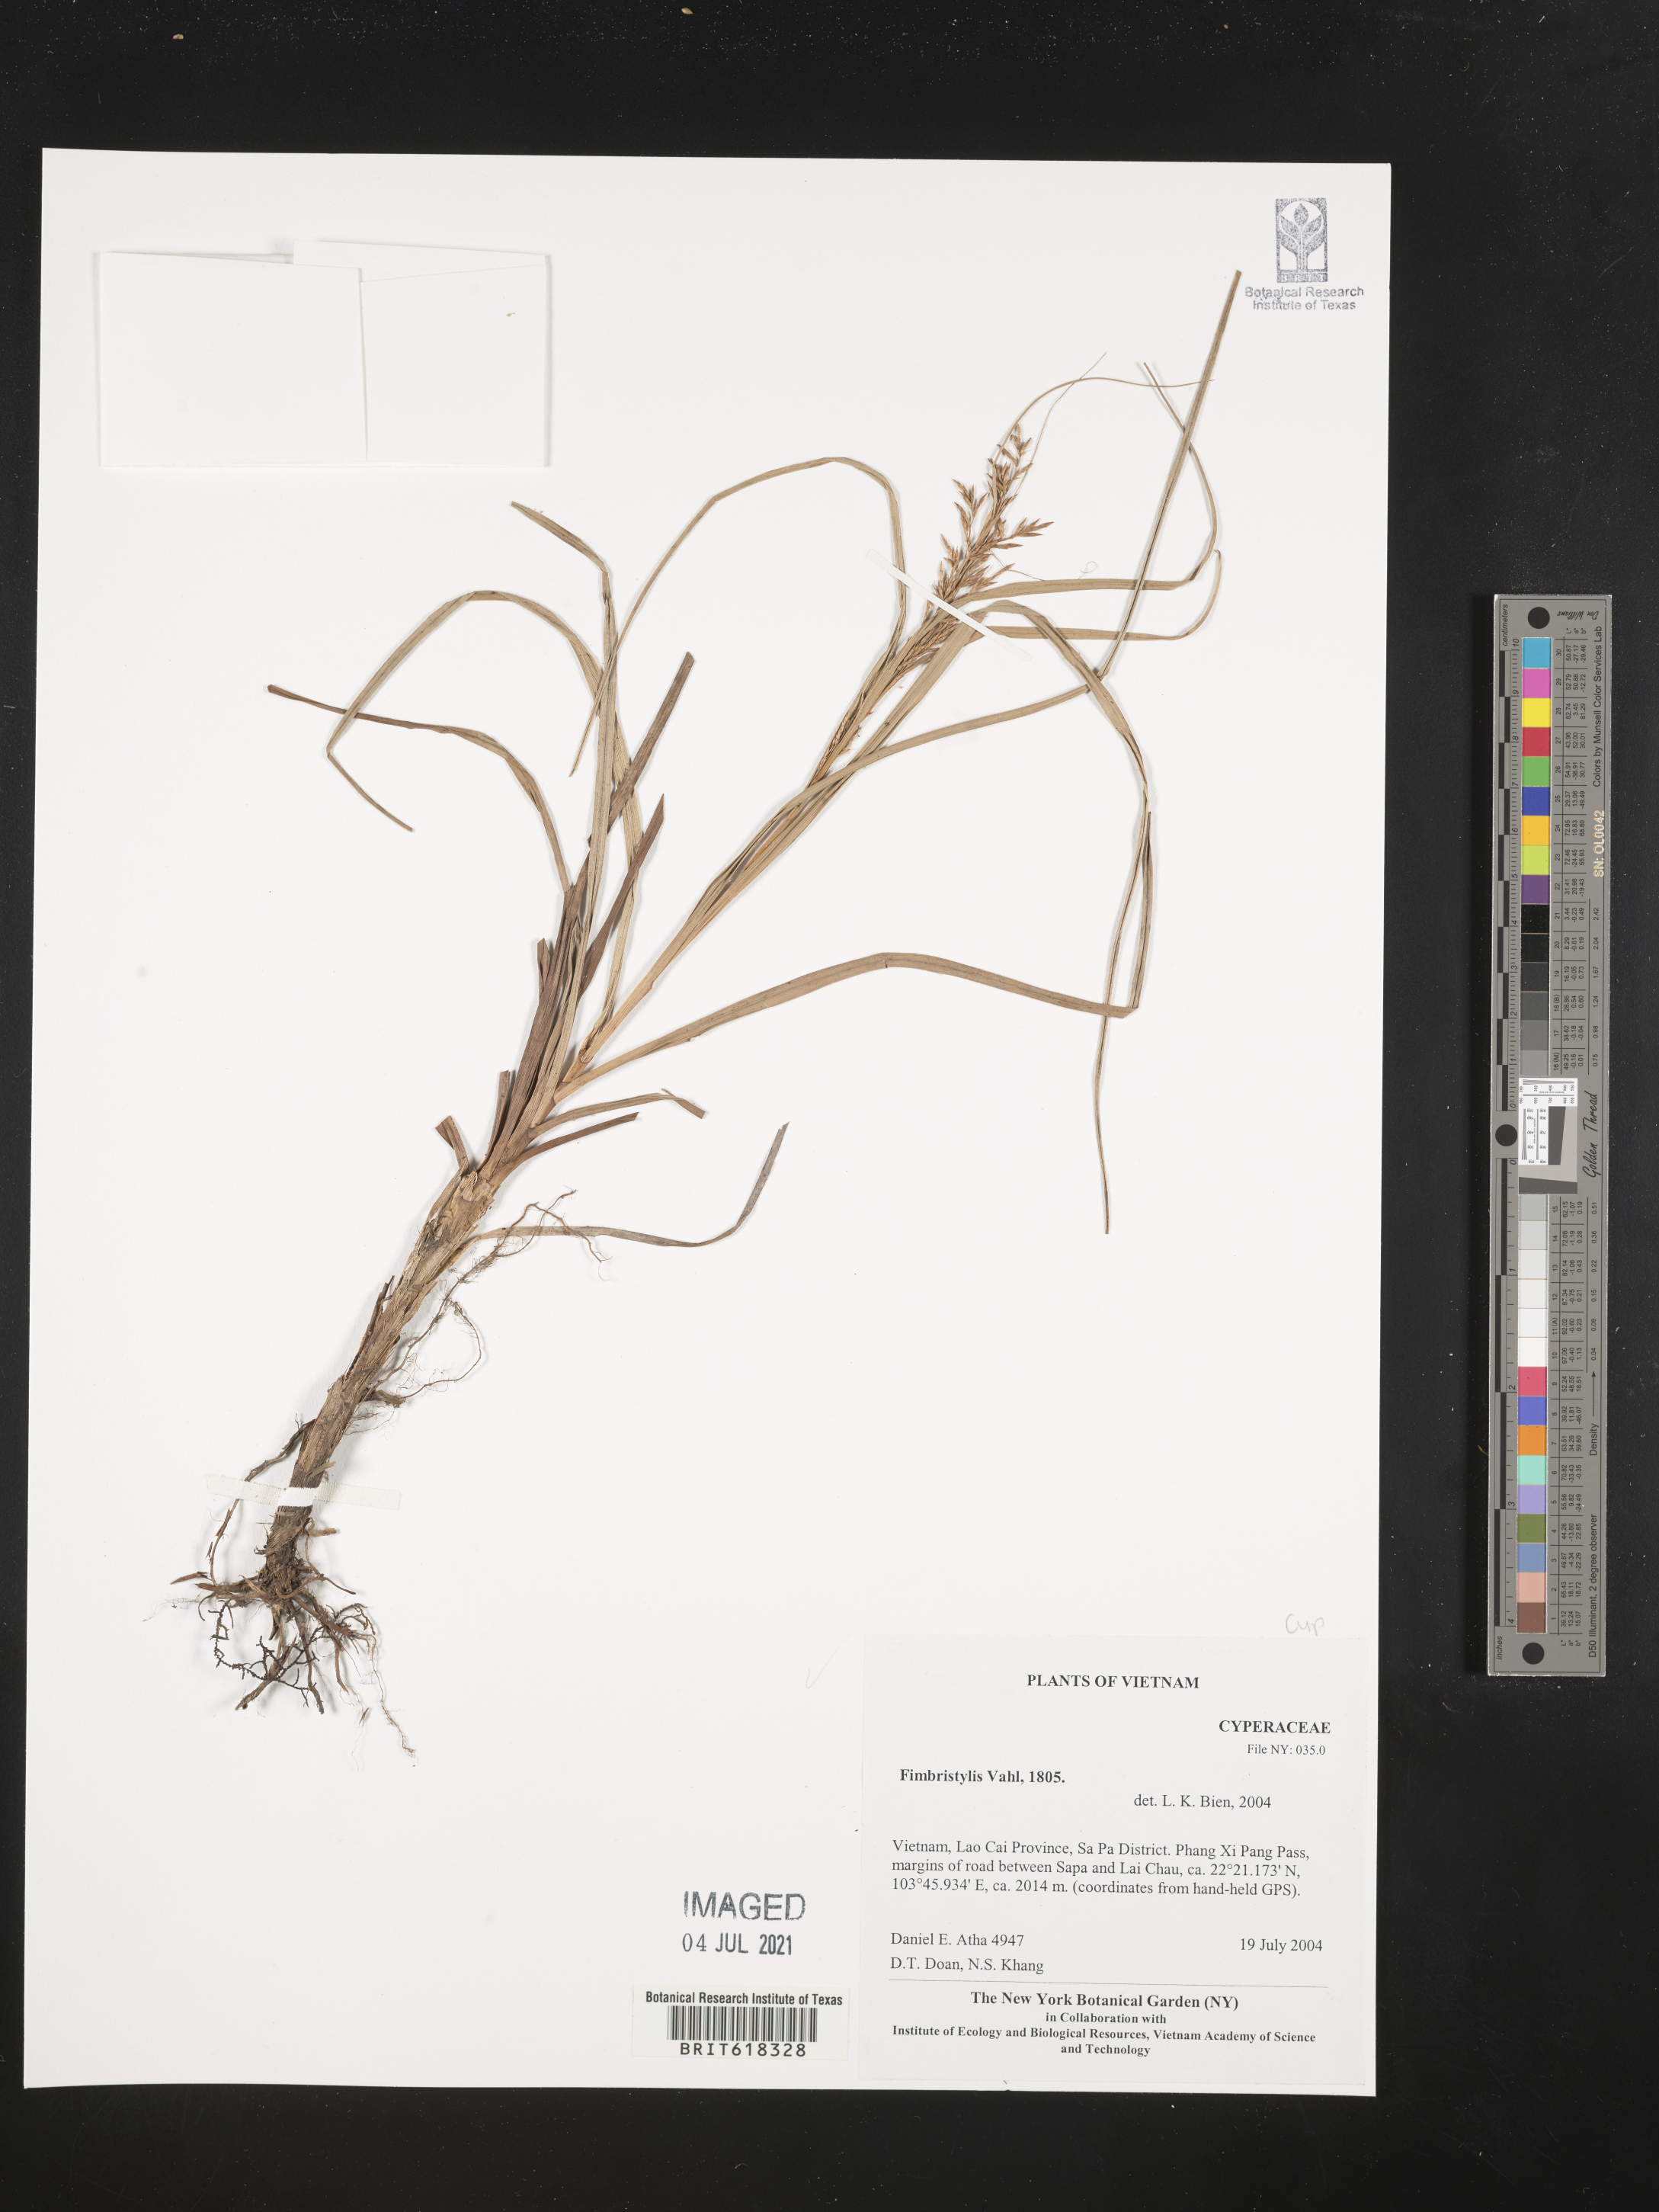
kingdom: Plantae
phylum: Tracheophyta
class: Liliopsida
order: Poales
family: Cyperaceae
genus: Fimbristylis
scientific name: Fimbristylis
